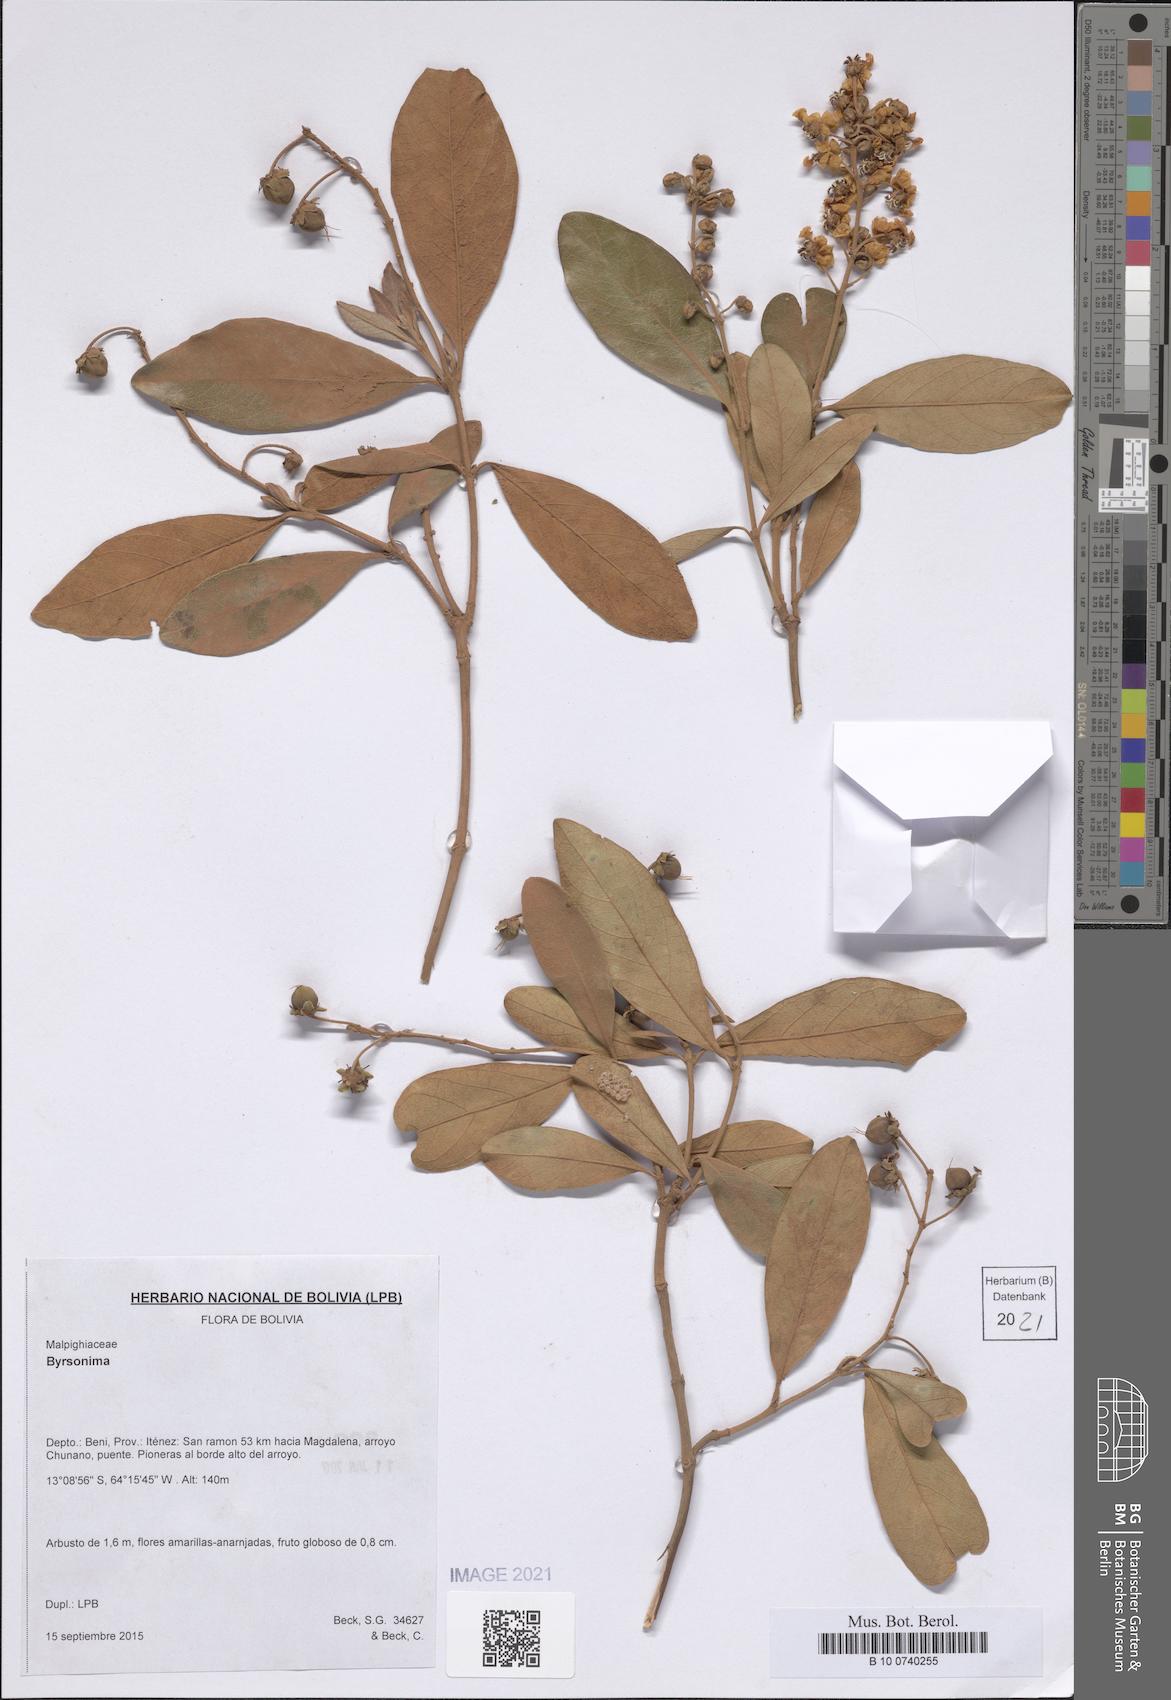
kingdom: Plantae
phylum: Tracheophyta
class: Magnoliopsida
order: Malpighiales
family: Malpighiaceae
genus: Byrsonima
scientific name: Byrsonima
